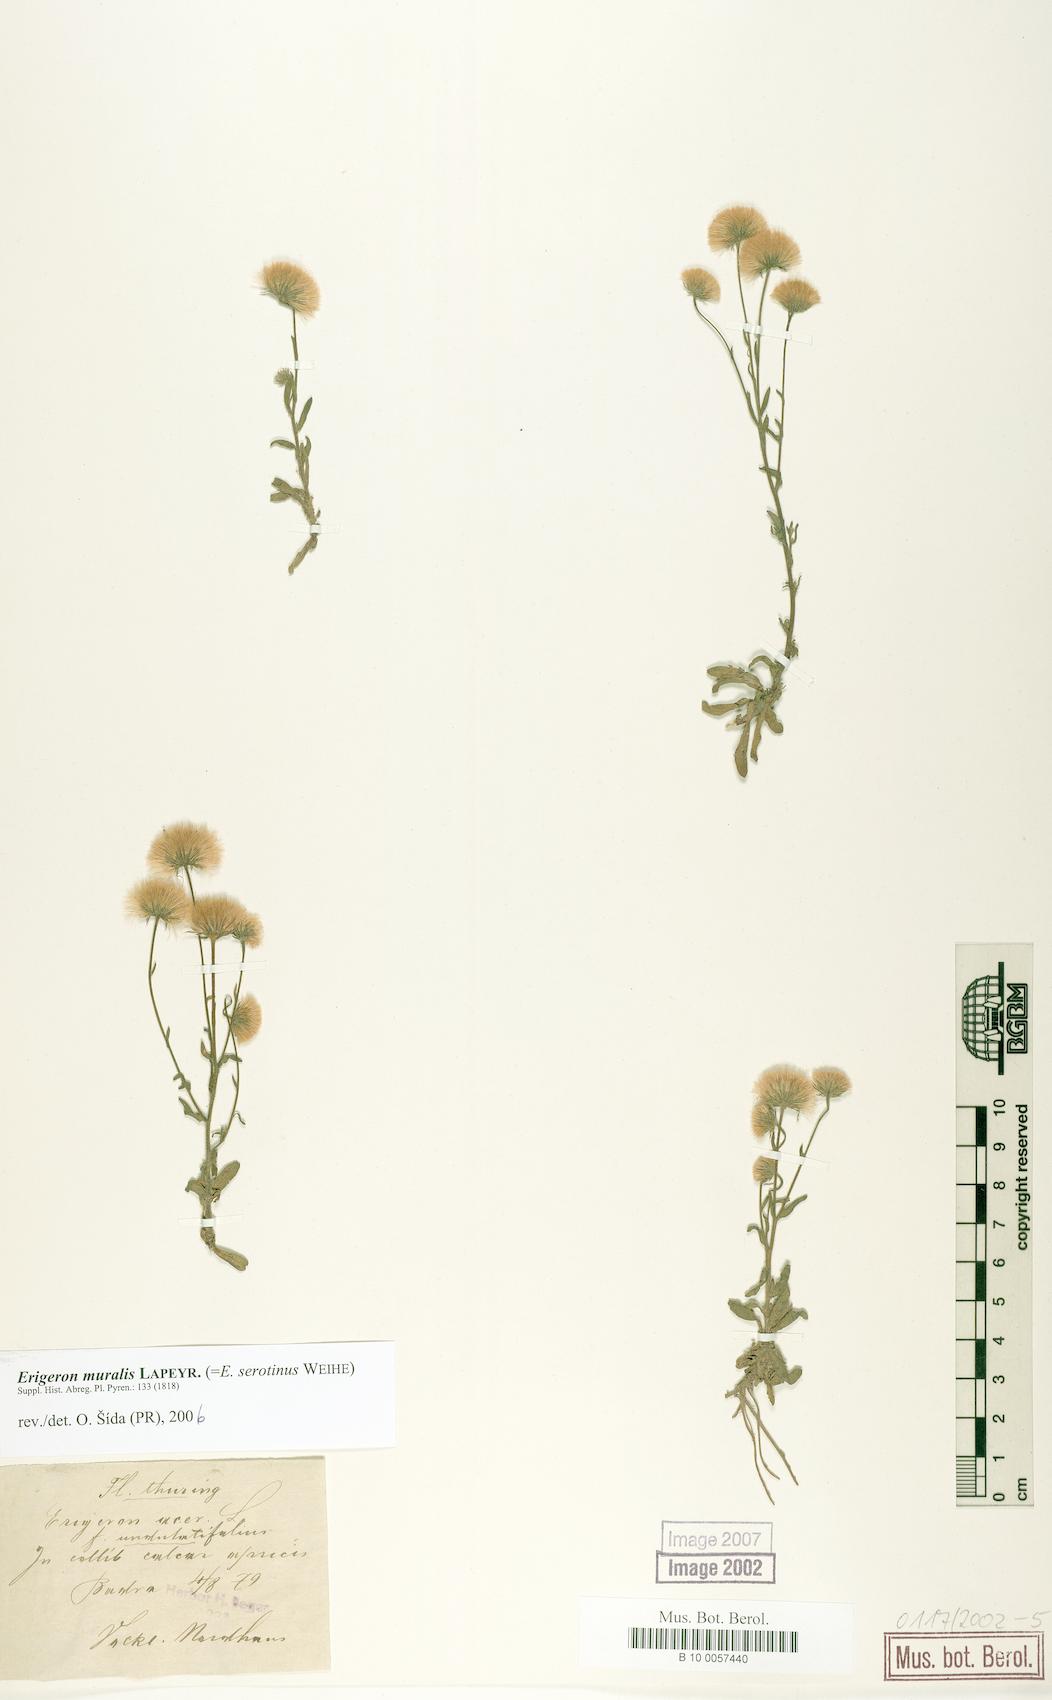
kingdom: Plantae
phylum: Tracheophyta
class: Magnoliopsida
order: Asterales
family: Asteraceae
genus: Erigeron
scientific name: Erigeron muralis
